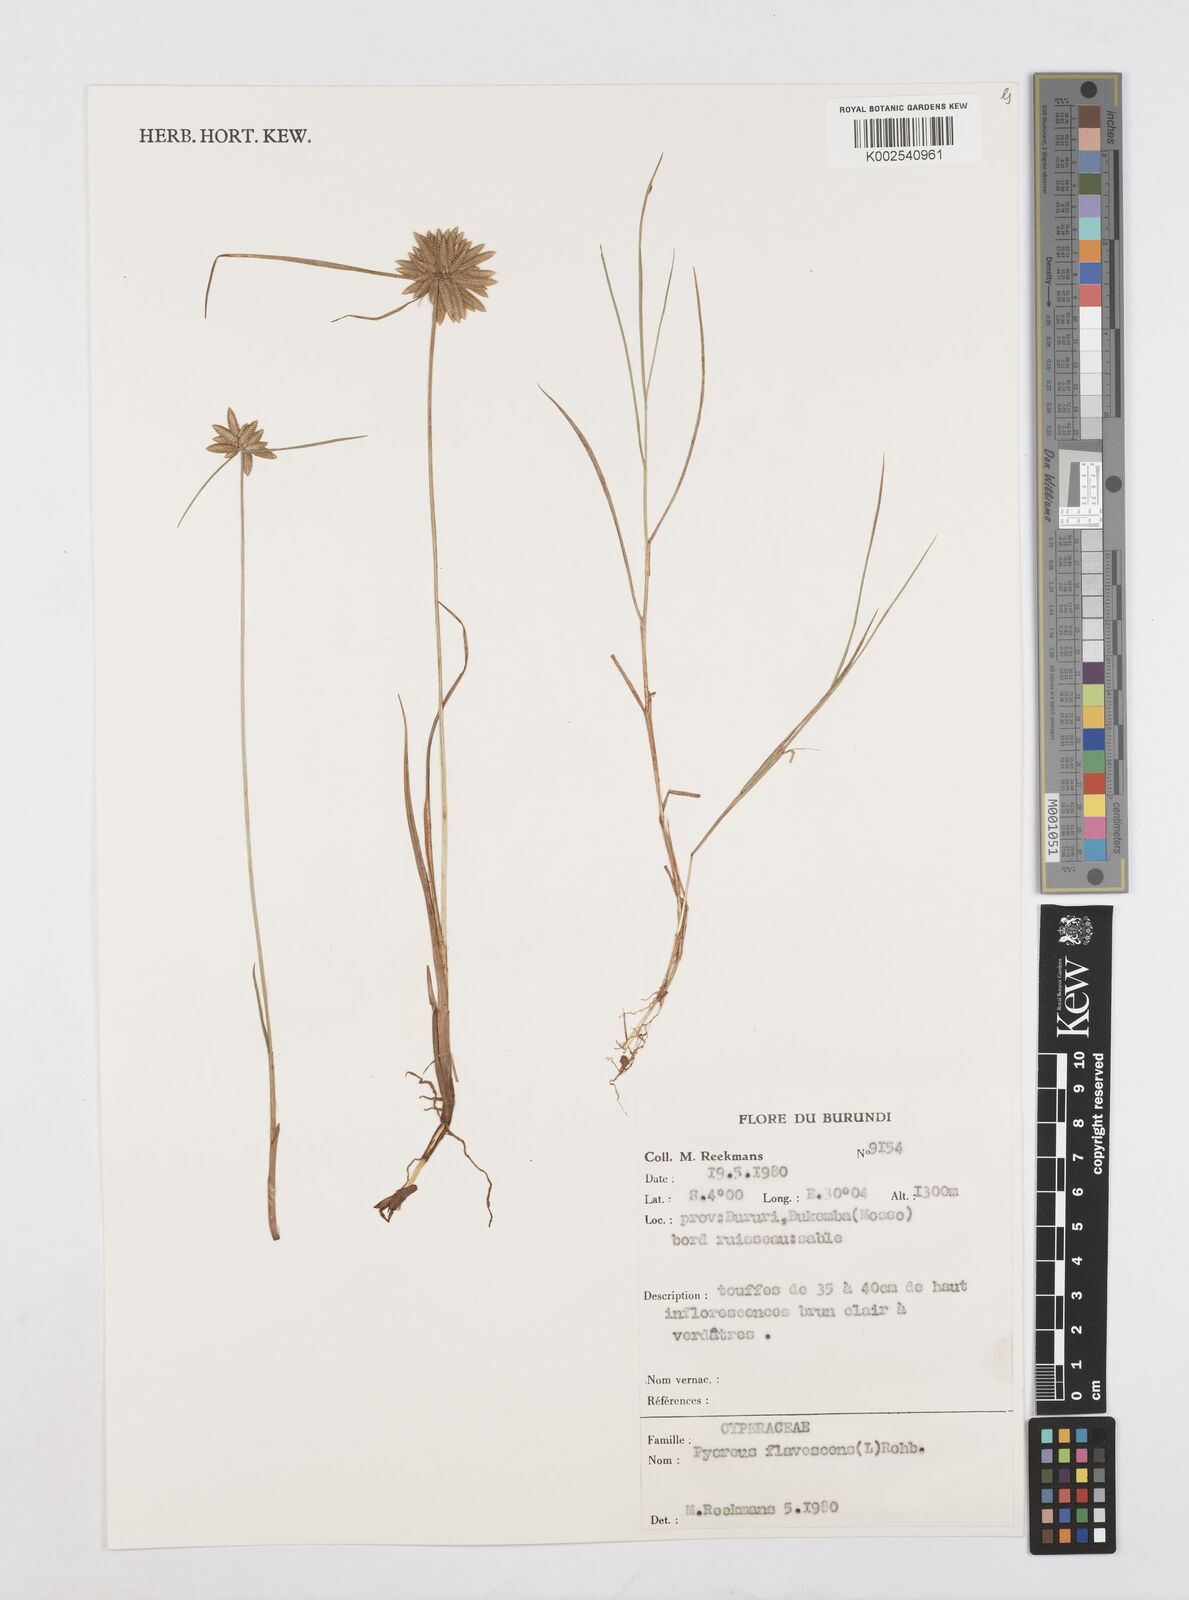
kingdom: Plantae
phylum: Tracheophyta
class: Liliopsida
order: Poales
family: Cyperaceae
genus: Cyperus
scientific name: Cyperus flavescens
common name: Yellow galingale
